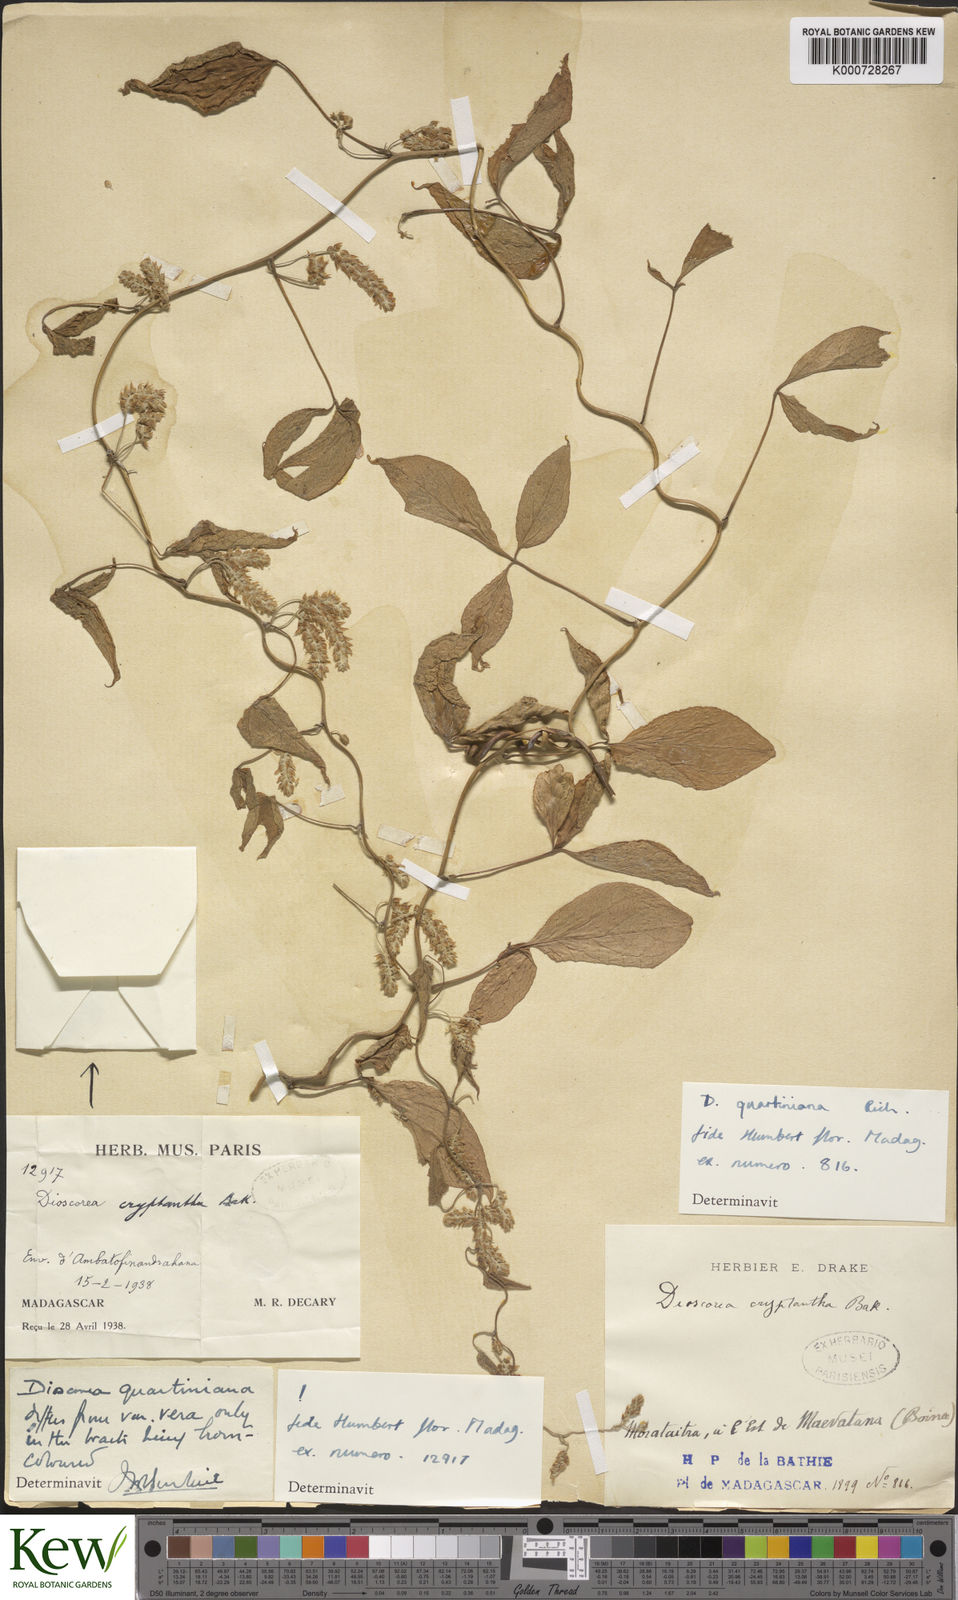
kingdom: Plantae
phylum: Tracheophyta
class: Liliopsida
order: Dioscoreales
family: Dioscoreaceae
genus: Dioscorea
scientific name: Dioscorea quartiniana
